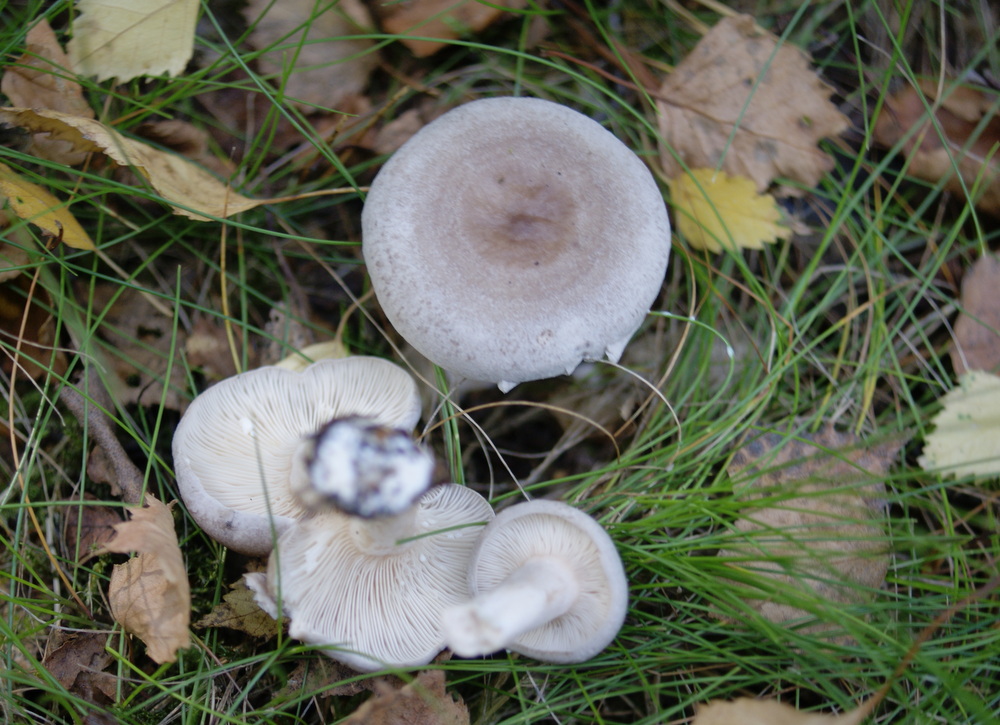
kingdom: Fungi
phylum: Basidiomycota
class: Agaricomycetes
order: Russulales
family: Russulaceae
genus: Lactarius
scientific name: Lactarius vietus
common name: violetgrå mælkehat
